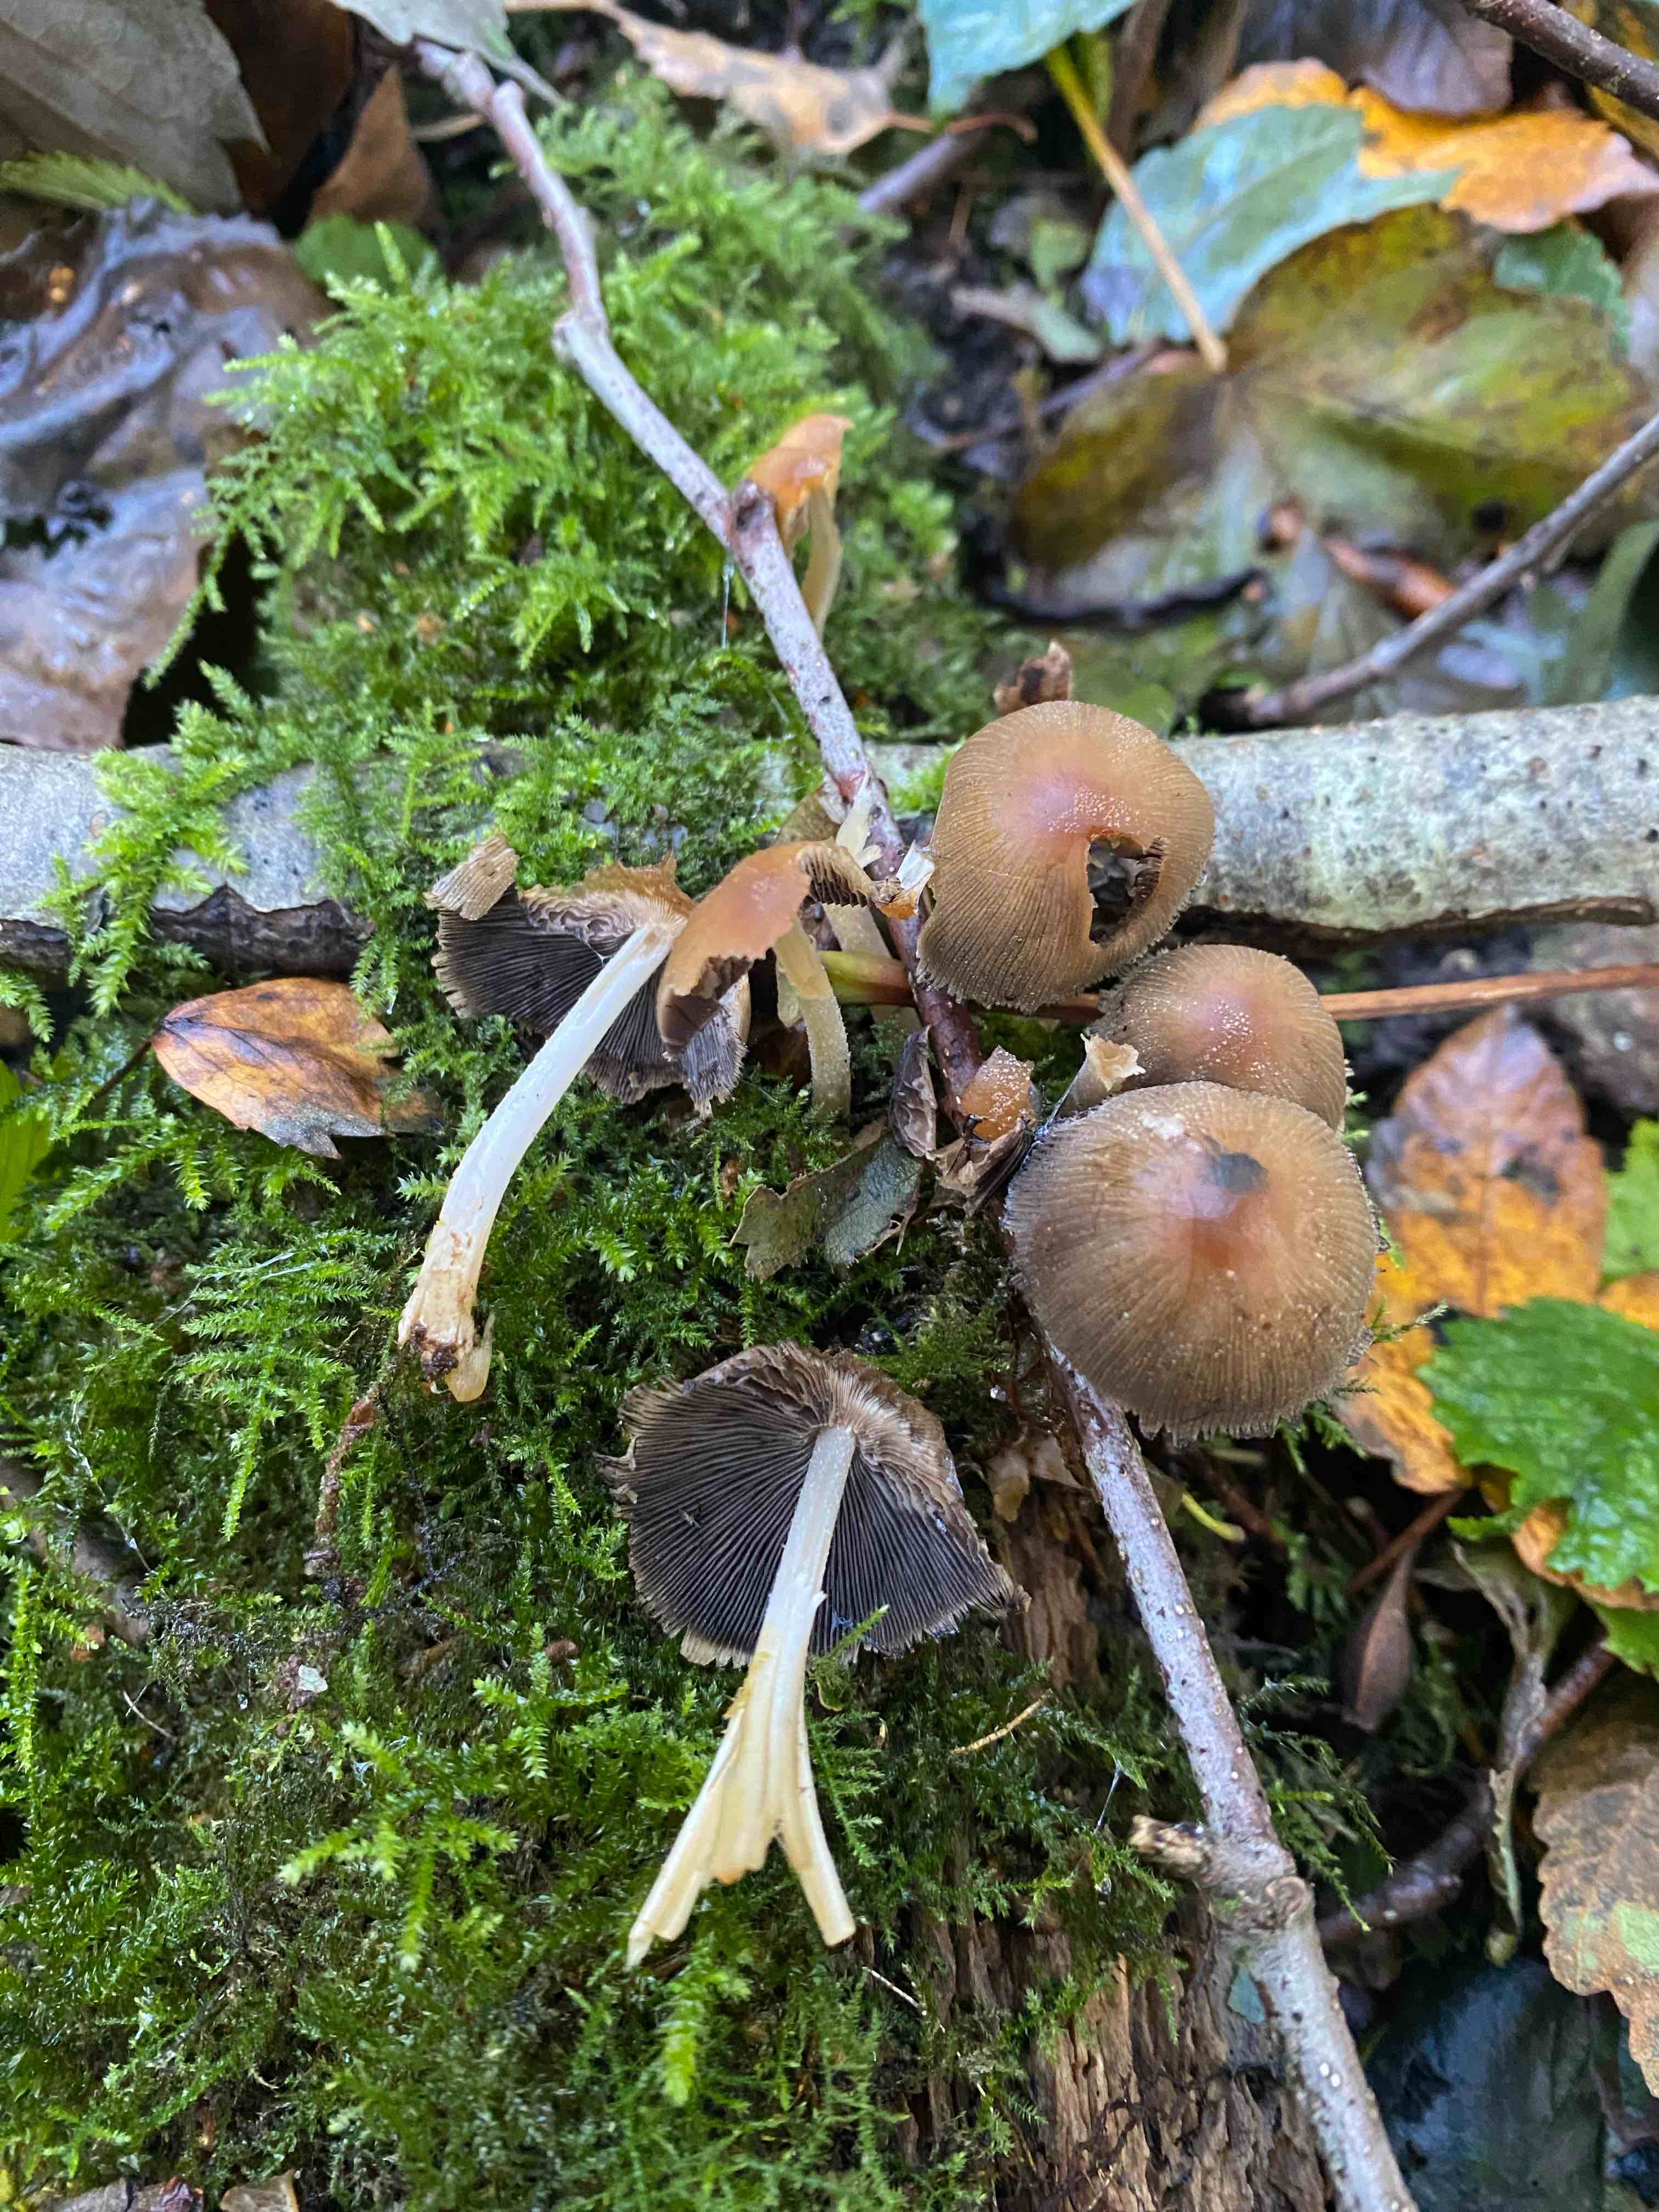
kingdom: Fungi
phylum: Basidiomycota
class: Agaricomycetes
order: Agaricales
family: Psathyrellaceae
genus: Coprinellus
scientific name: Coprinellus micaceus
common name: glimmer-blækhat
